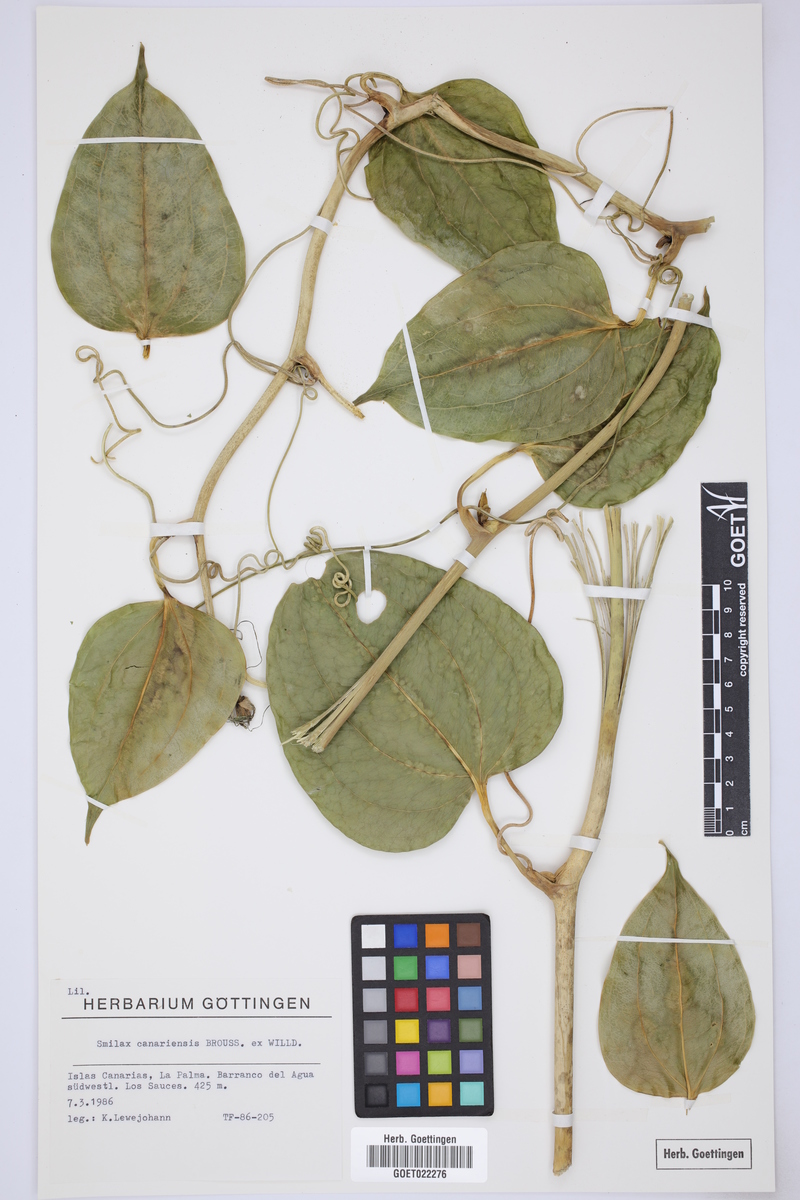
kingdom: Plantae
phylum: Tracheophyta
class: Liliopsida
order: Liliales
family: Smilacaceae
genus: Smilax
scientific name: Smilax canariensis
